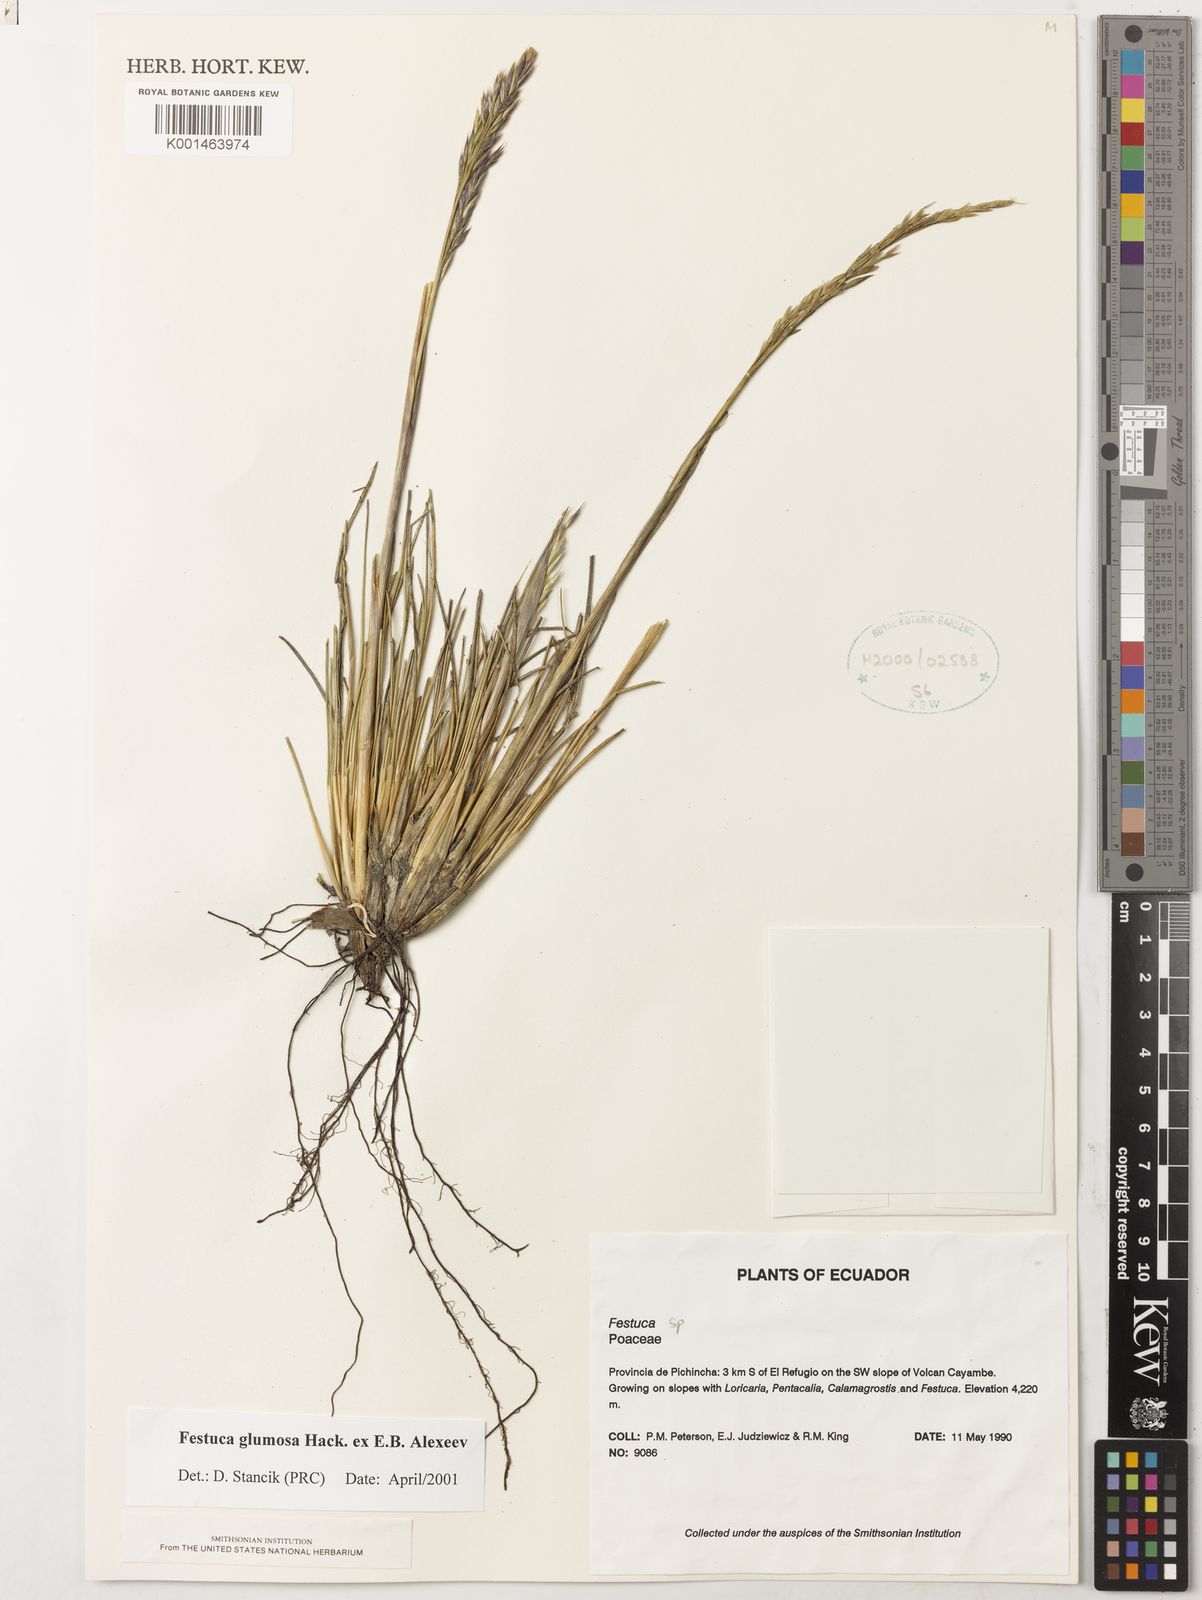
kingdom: Plantae
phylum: Tracheophyta
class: Liliopsida
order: Poales
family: Poaceae
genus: Festuca
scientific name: Festuca glumosa
